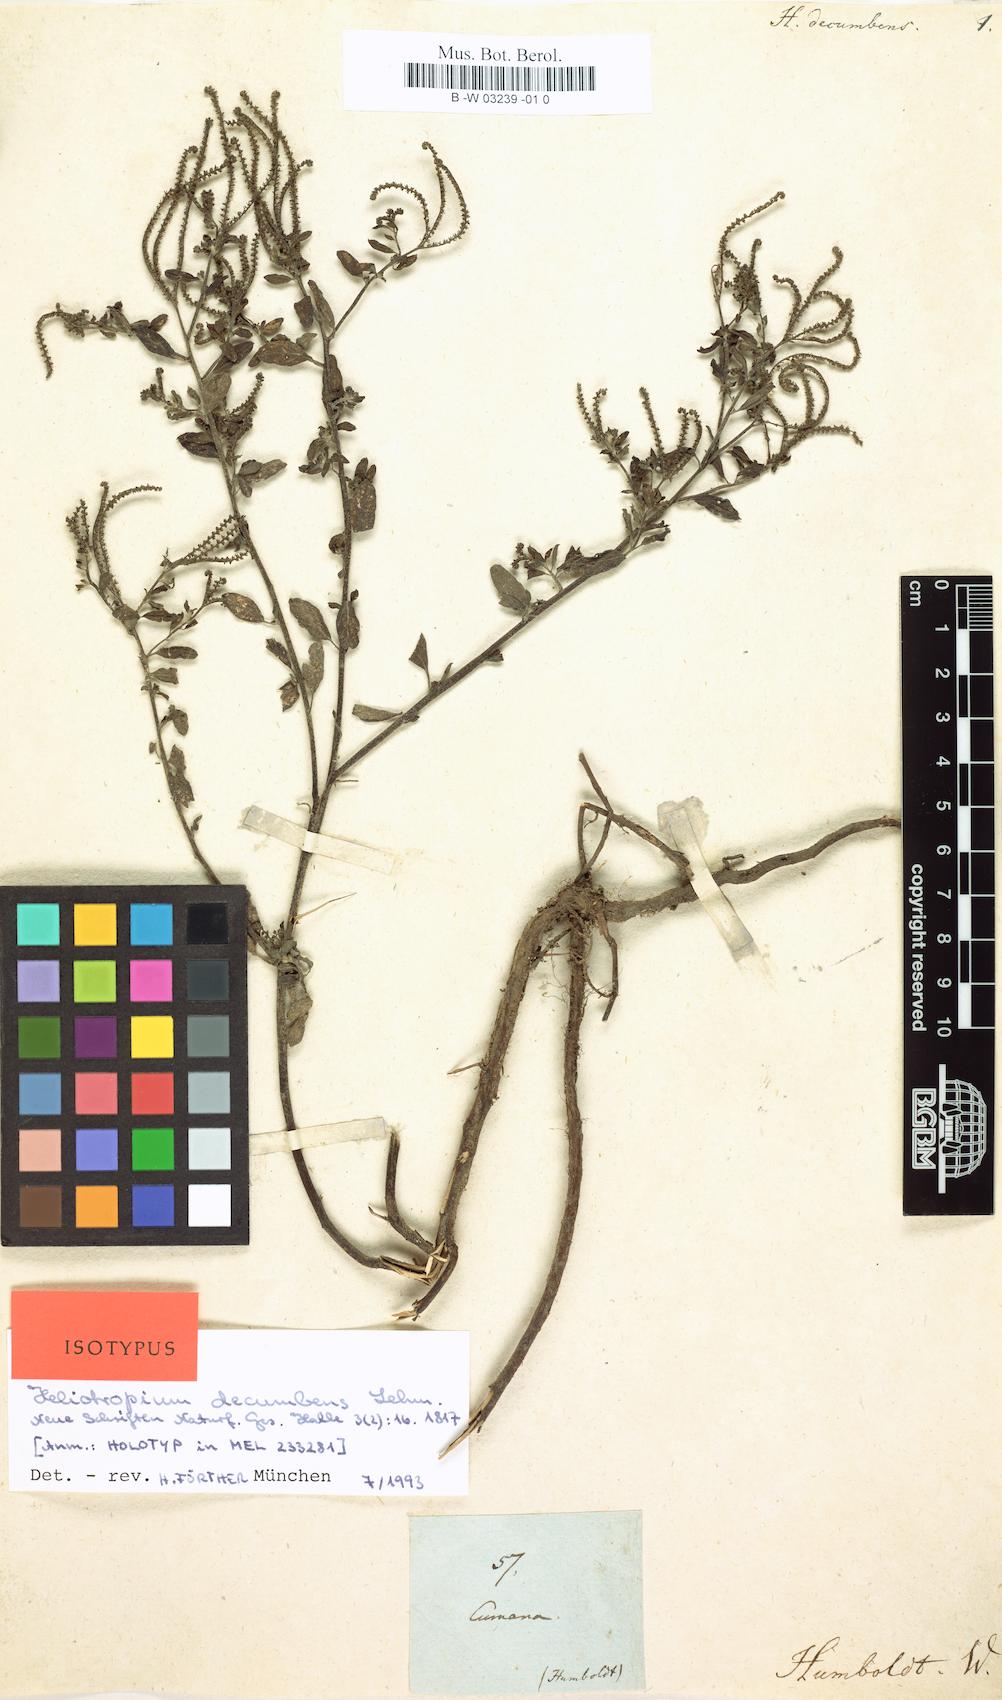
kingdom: Plantae
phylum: Tracheophyta
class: Magnoliopsida
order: Boraginales
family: Heliotropiaceae
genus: Euploca
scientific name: Euploca procumbens
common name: Fourspike heliotrope
